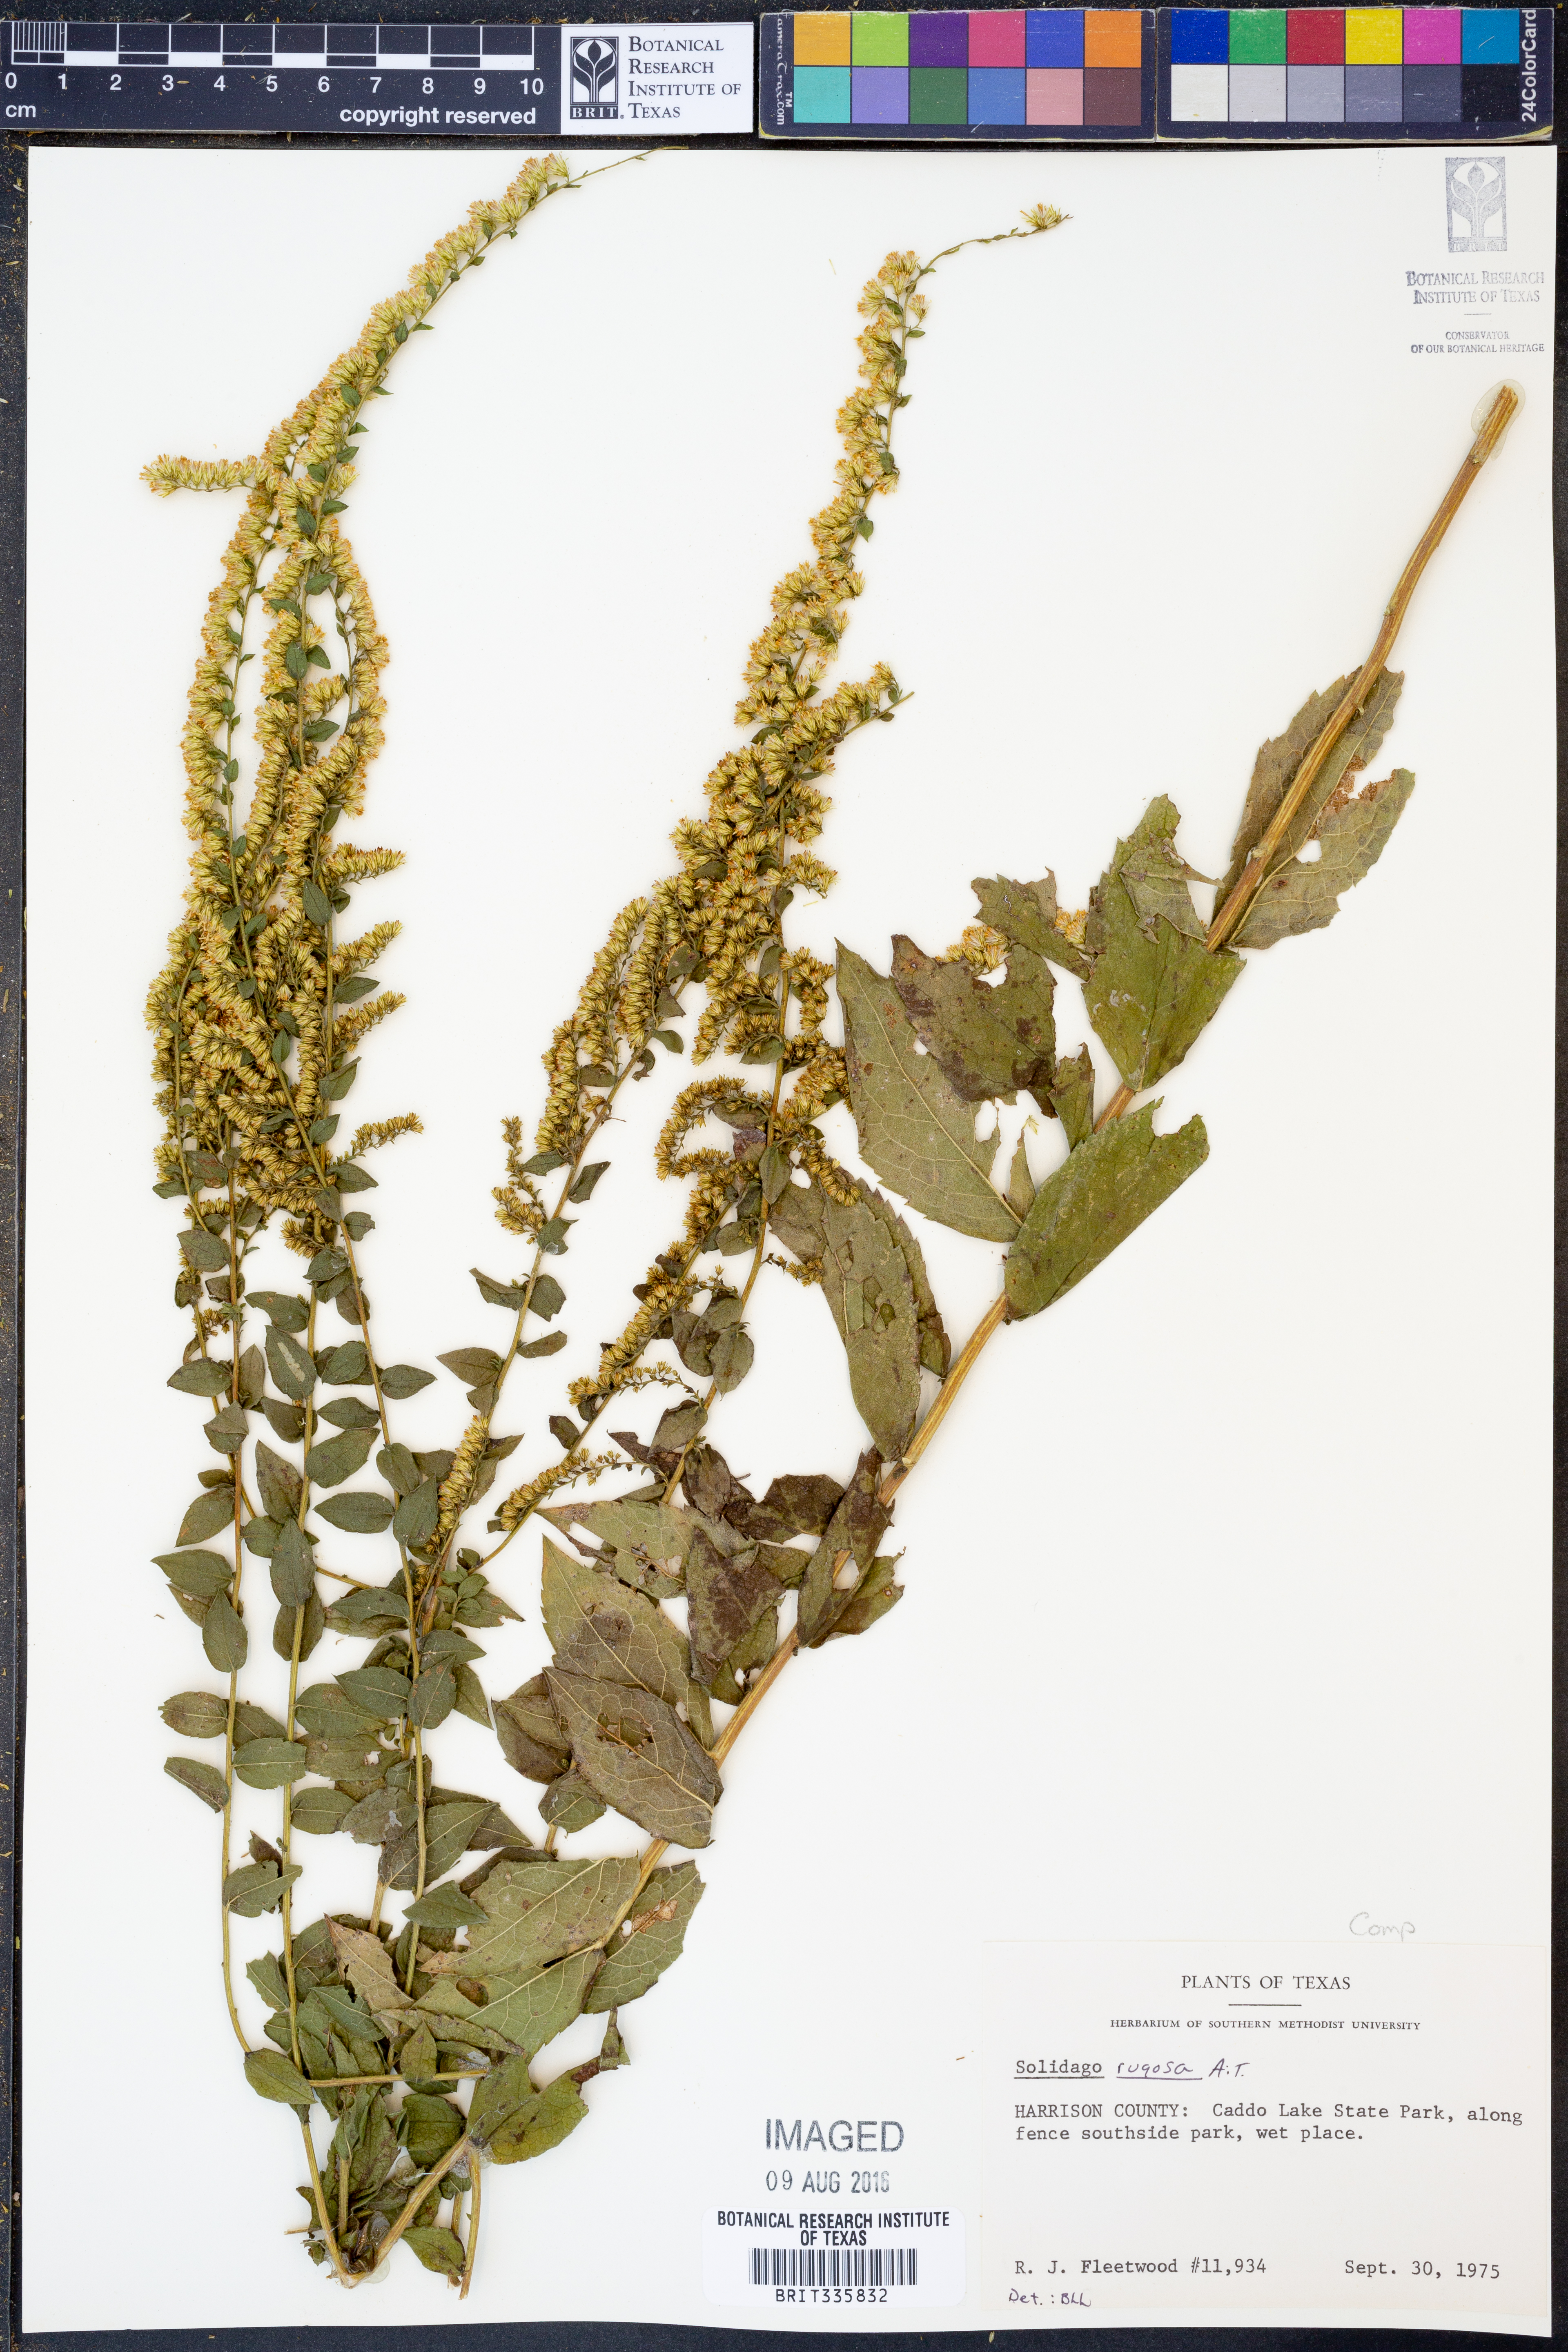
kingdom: Plantae
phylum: Tracheophyta
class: Magnoliopsida
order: Asterales
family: Asteraceae
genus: Solidago
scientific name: Solidago rugosa
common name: Rough-stemmed goldenrod
